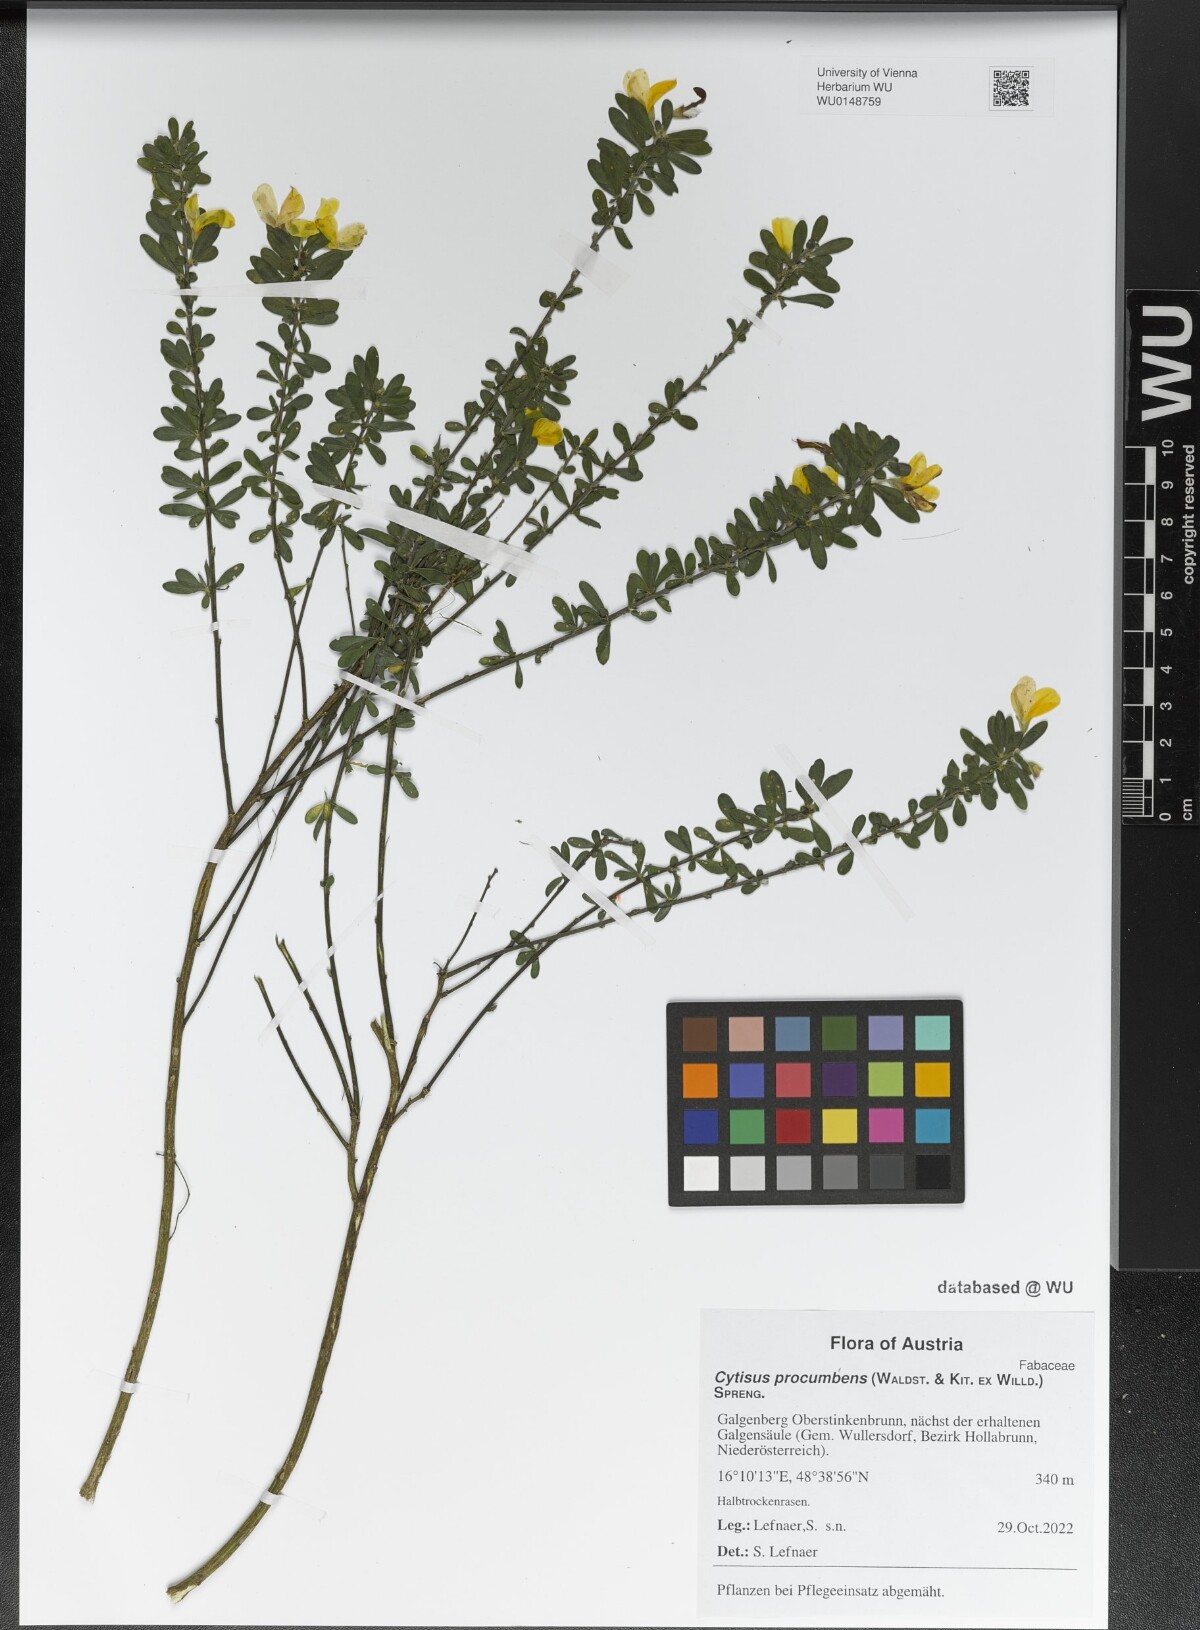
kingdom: Plantae
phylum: Tracheophyta
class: Magnoliopsida
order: Fabales
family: Fabaceae
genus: Cytisus
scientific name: Cytisus procumbens
